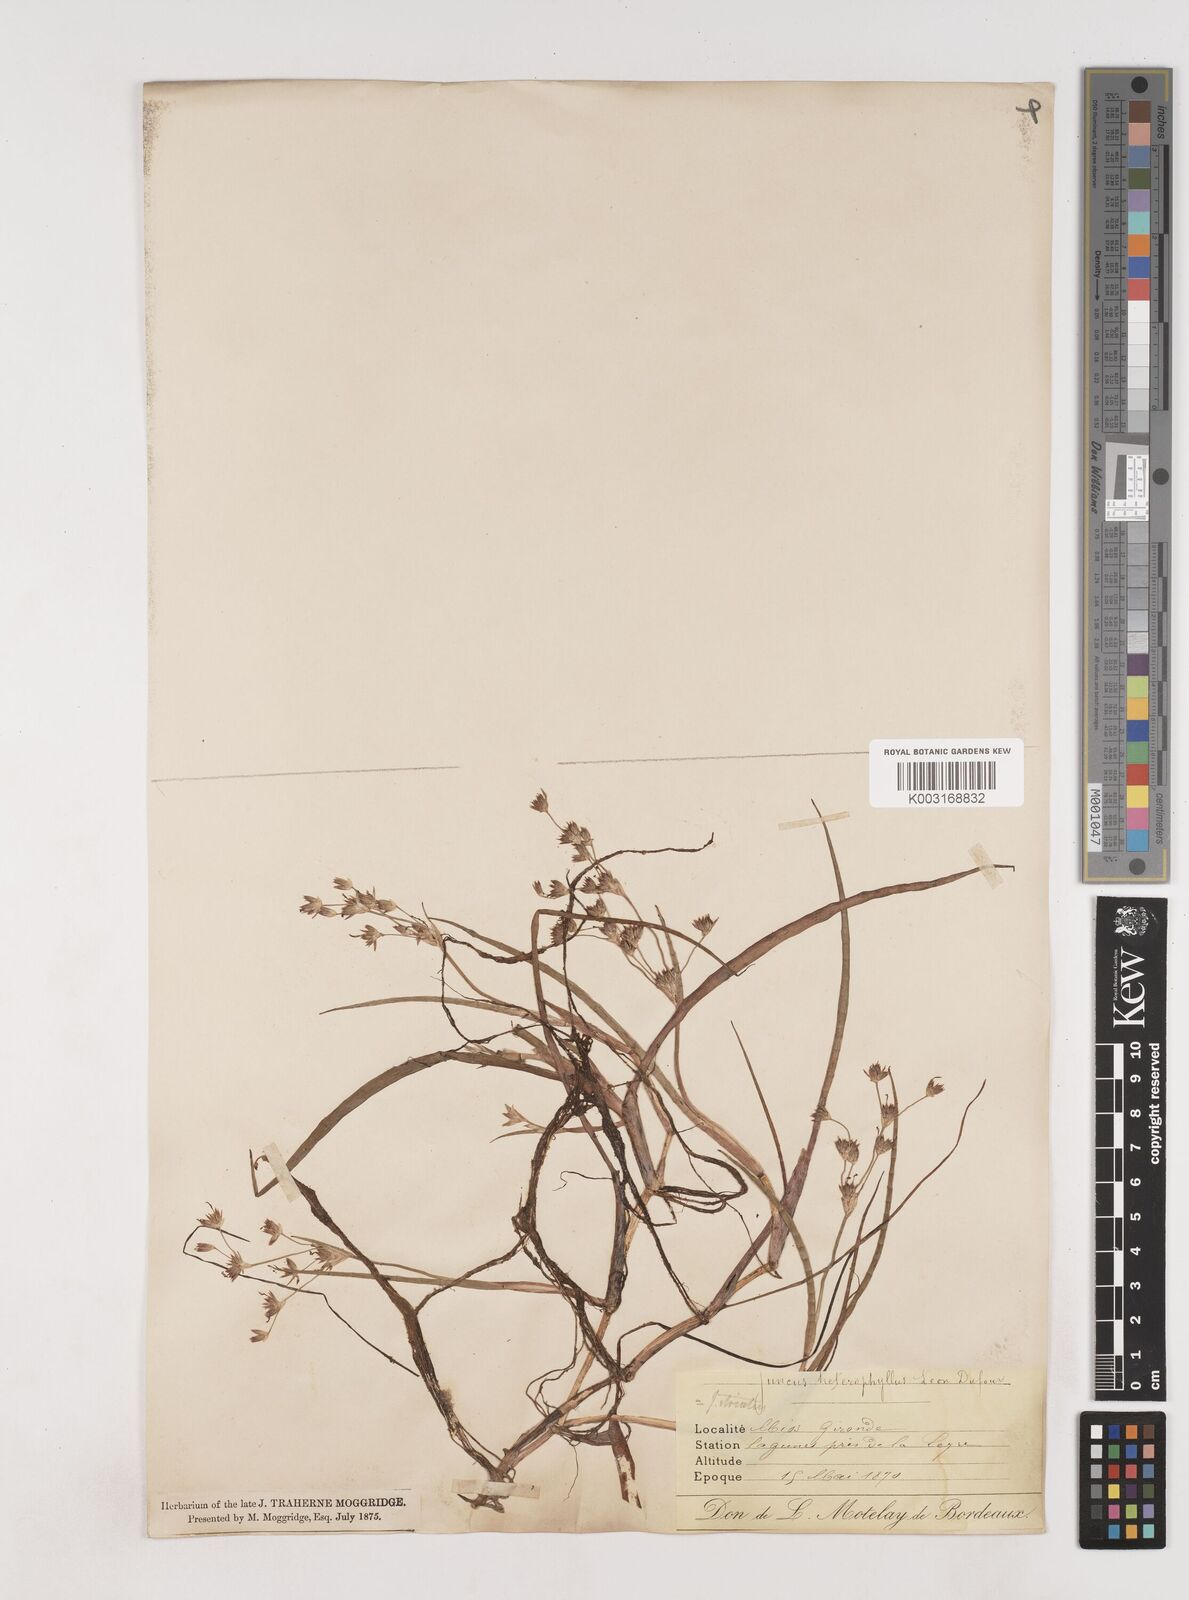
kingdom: Plantae
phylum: Tracheophyta
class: Liliopsida
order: Poales
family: Juncaceae
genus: Juncus
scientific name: Juncus heterophyllus
